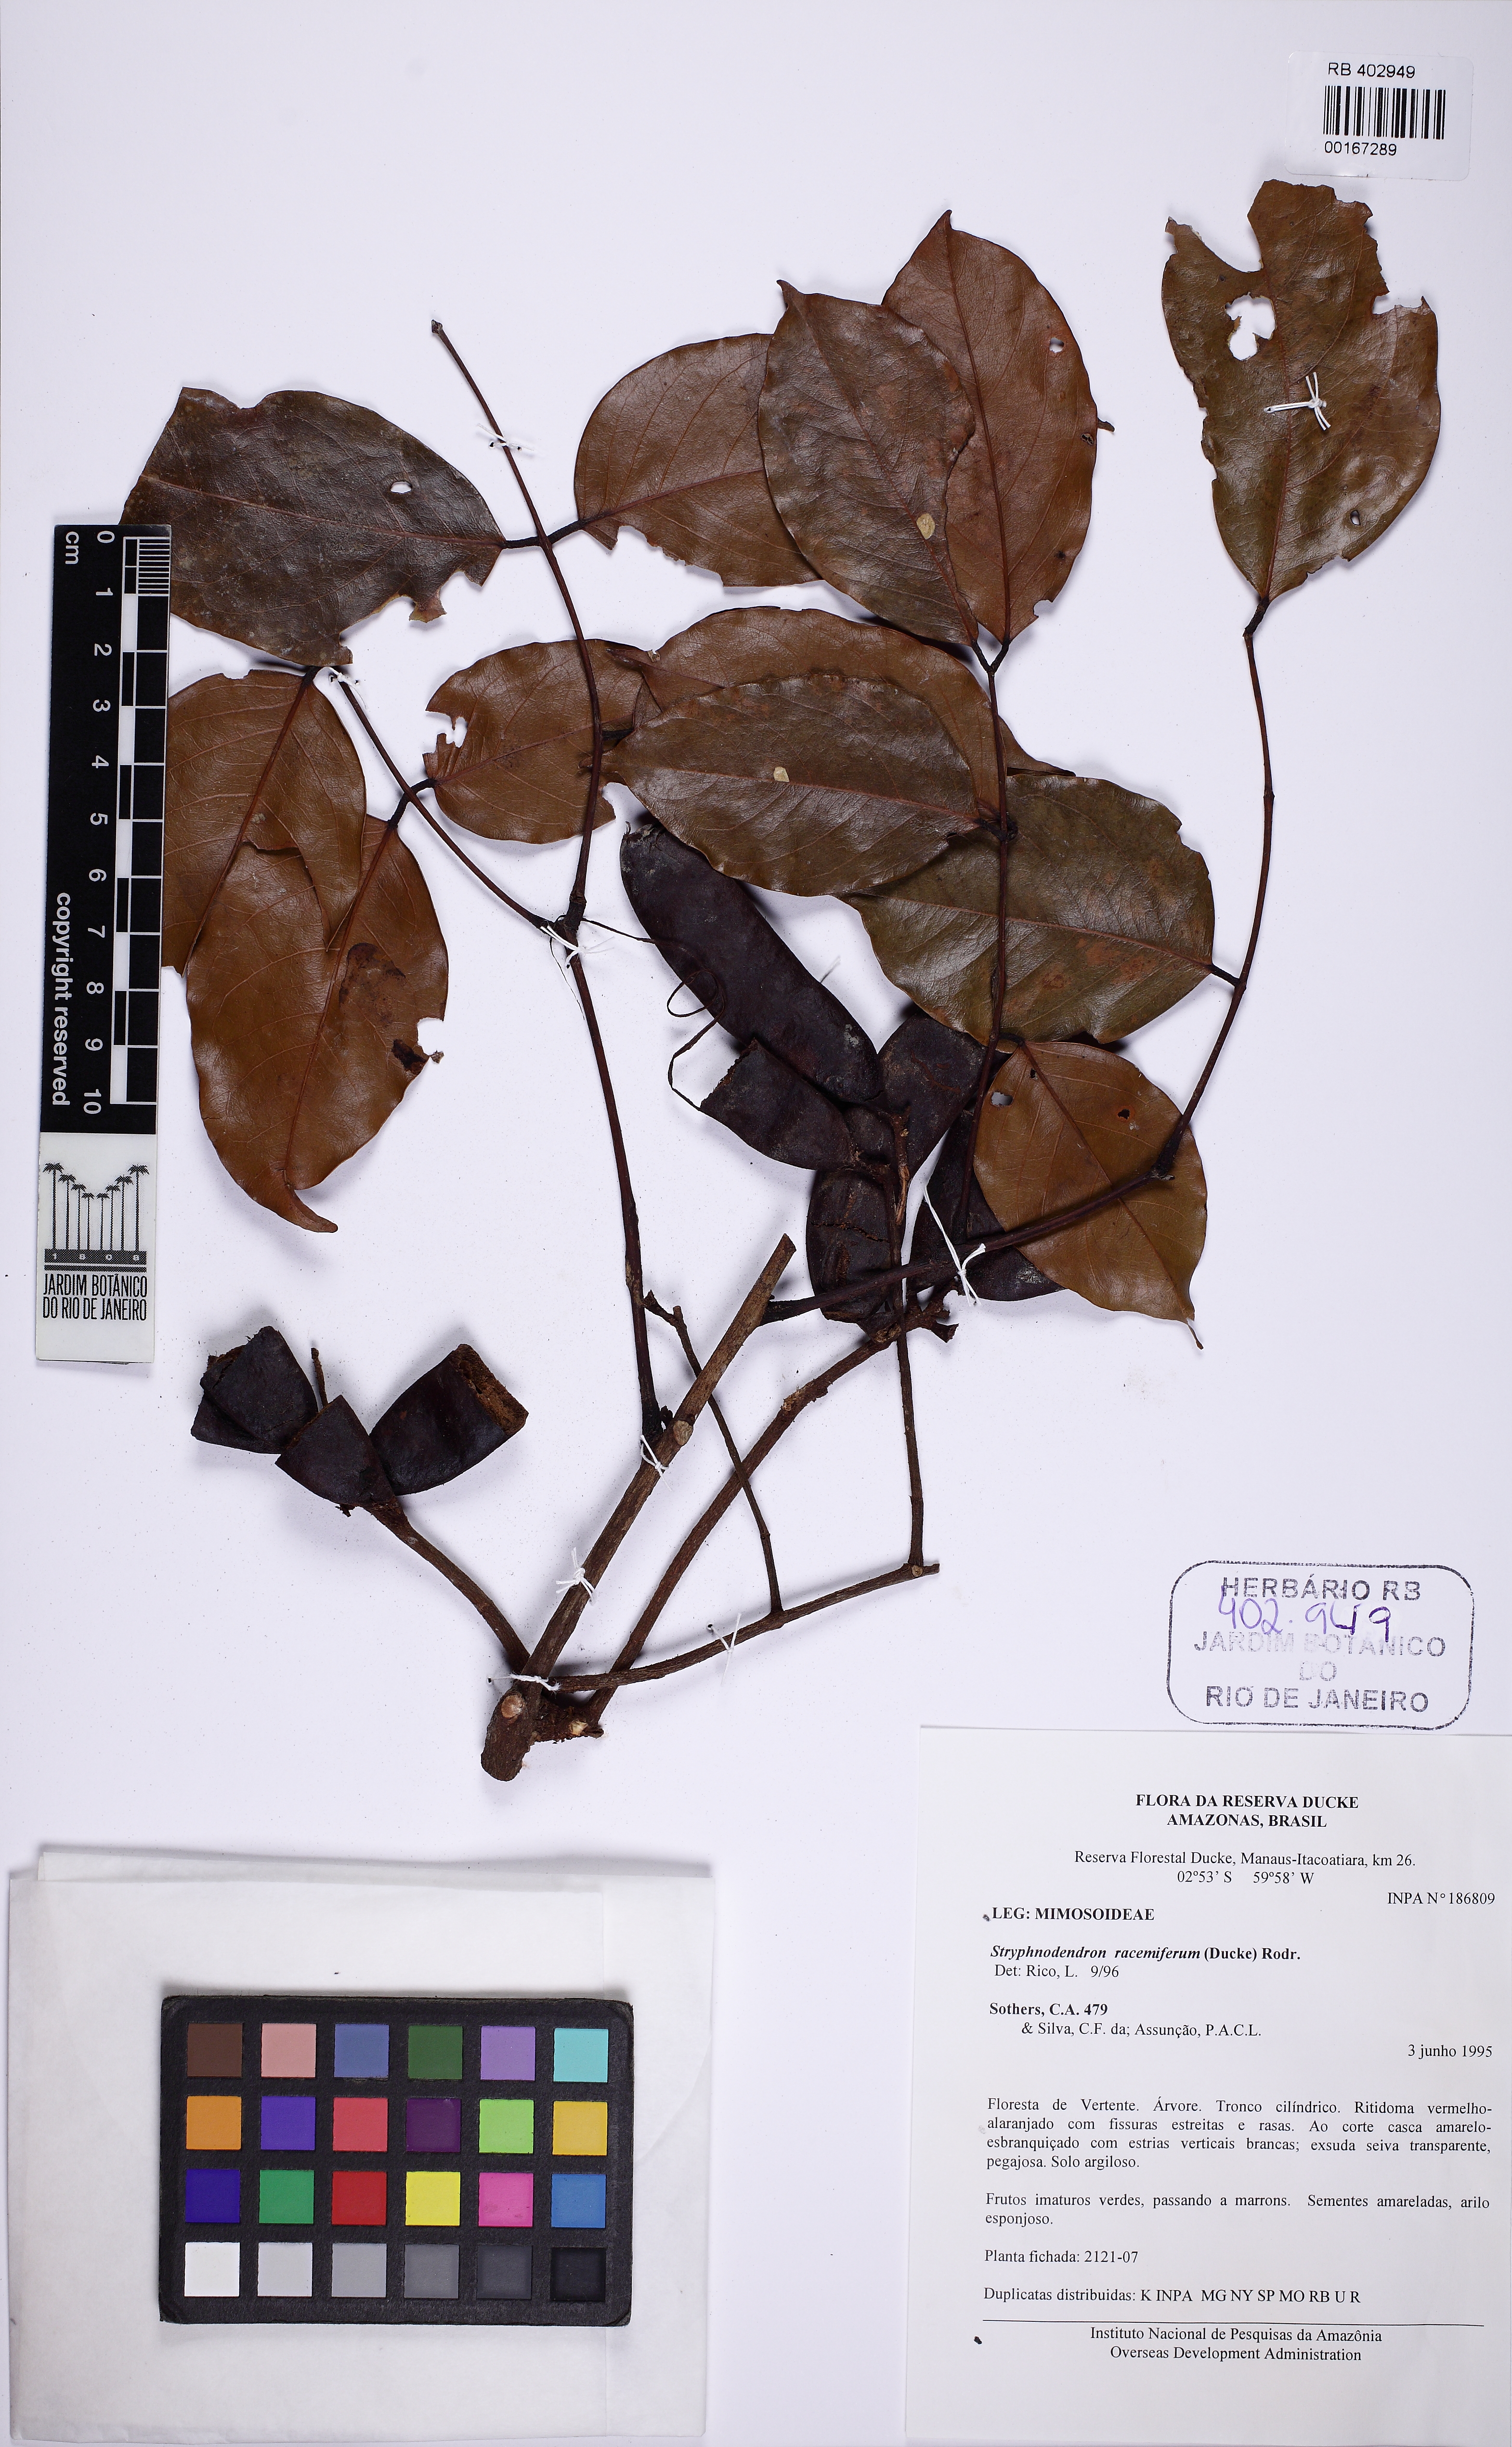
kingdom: Plantae
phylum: Tracheophyta
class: Magnoliopsida
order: Fabales
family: Fabaceae
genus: Stryphnodendron
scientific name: Stryphnodendron racemiferum
